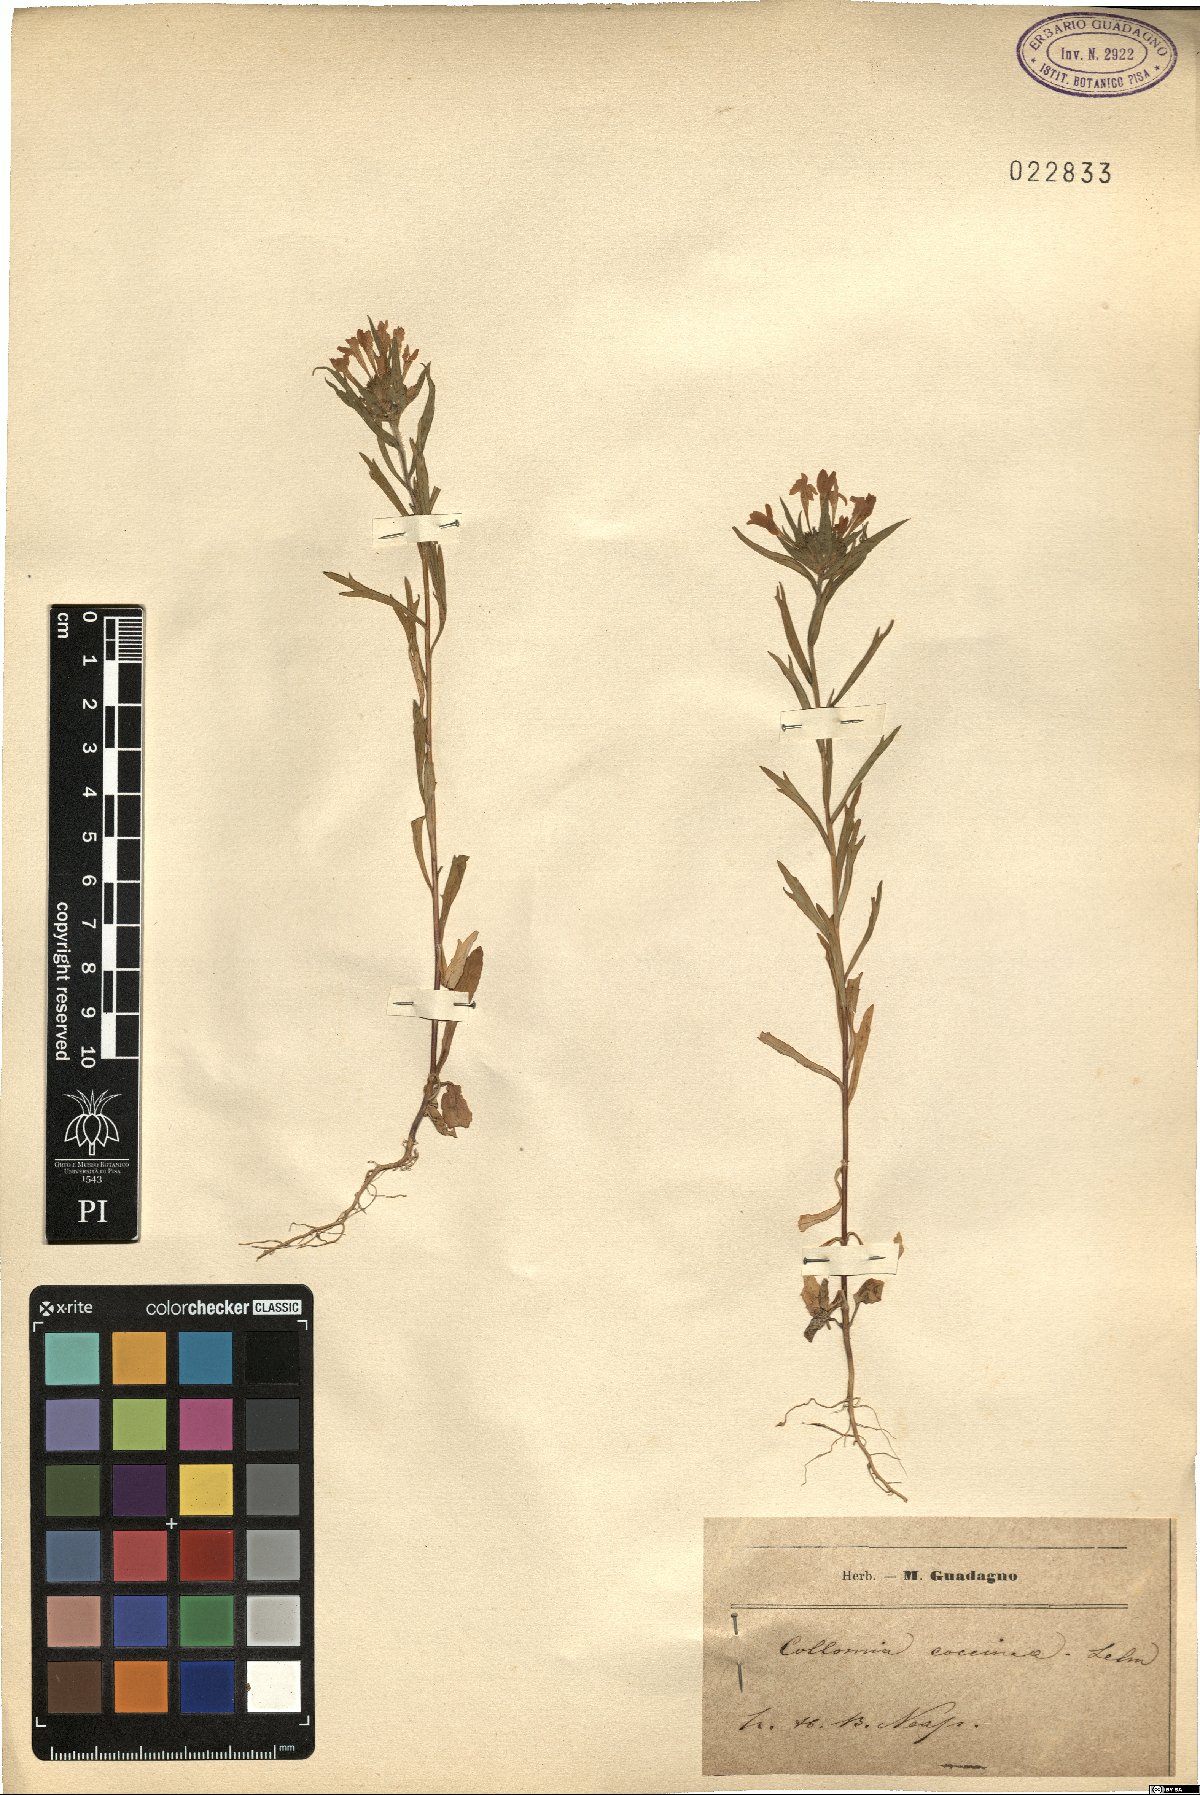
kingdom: Plantae
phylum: Tracheophyta
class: Magnoliopsida
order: Ericales
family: Polemoniaceae
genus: Collomia
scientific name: Collomia coccinea
